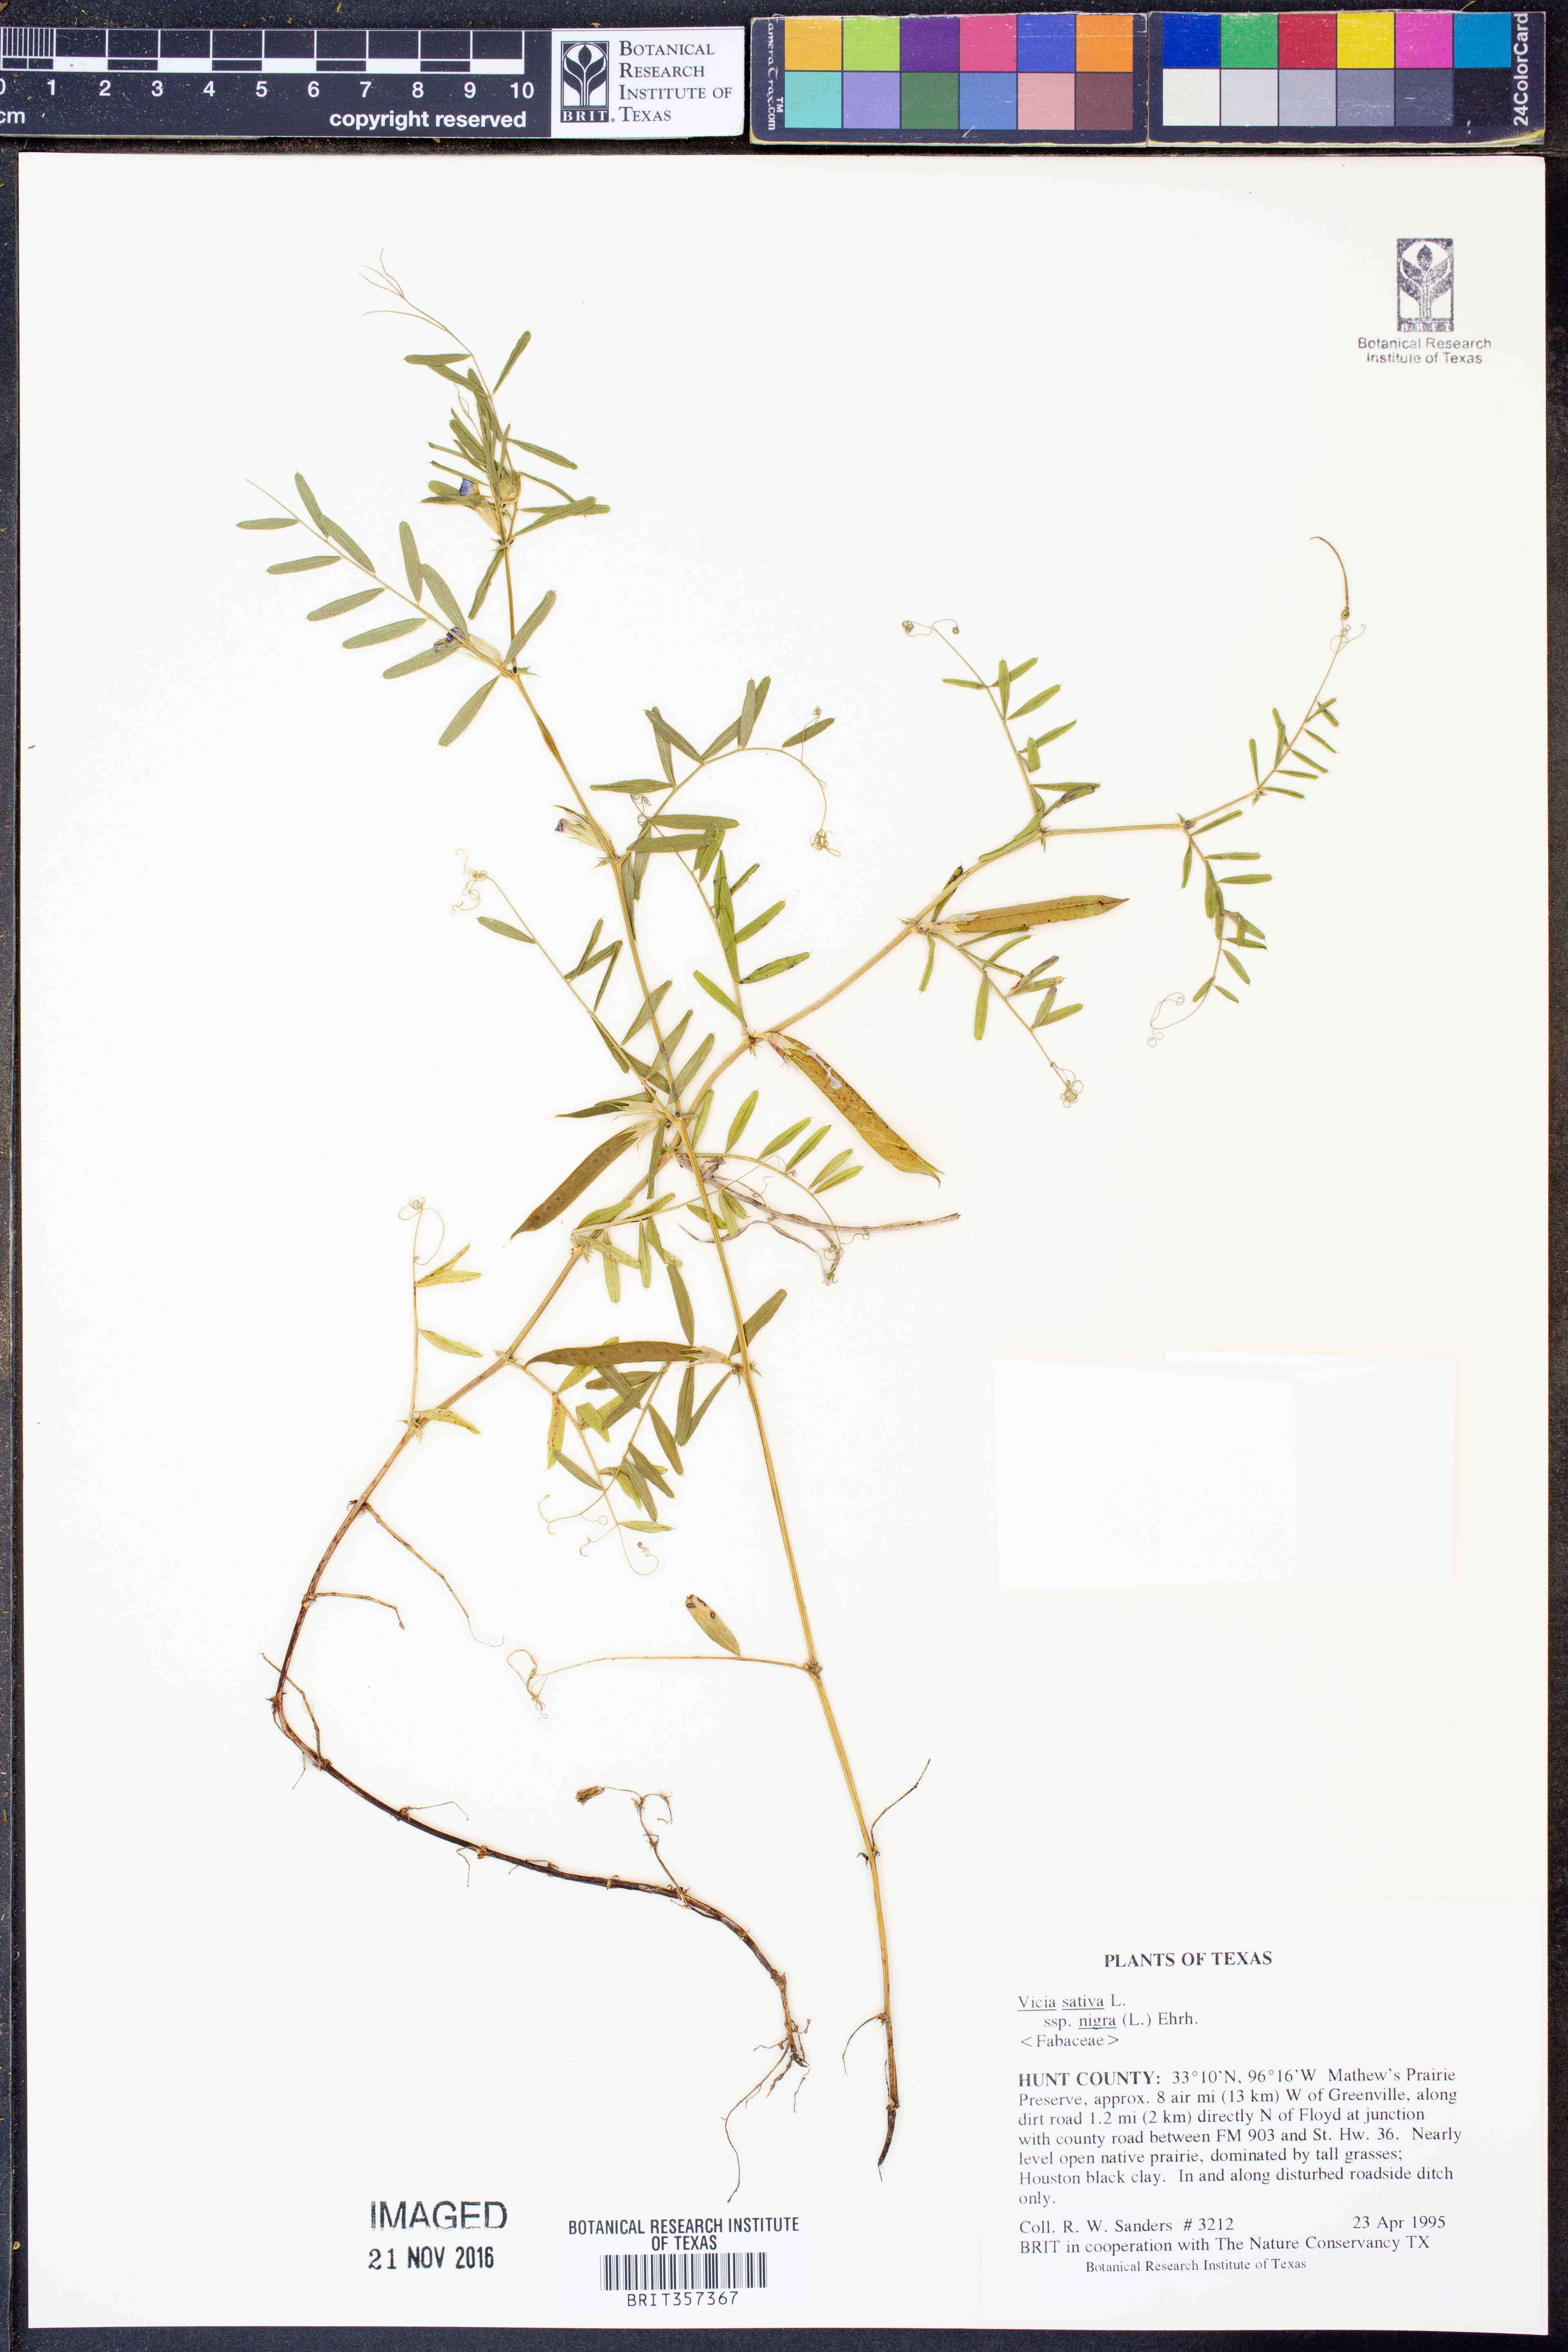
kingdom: Plantae
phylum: Tracheophyta
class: Magnoliopsida
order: Fabales
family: Fabaceae
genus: Vicia
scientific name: Vicia sativa
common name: Garden vetch
